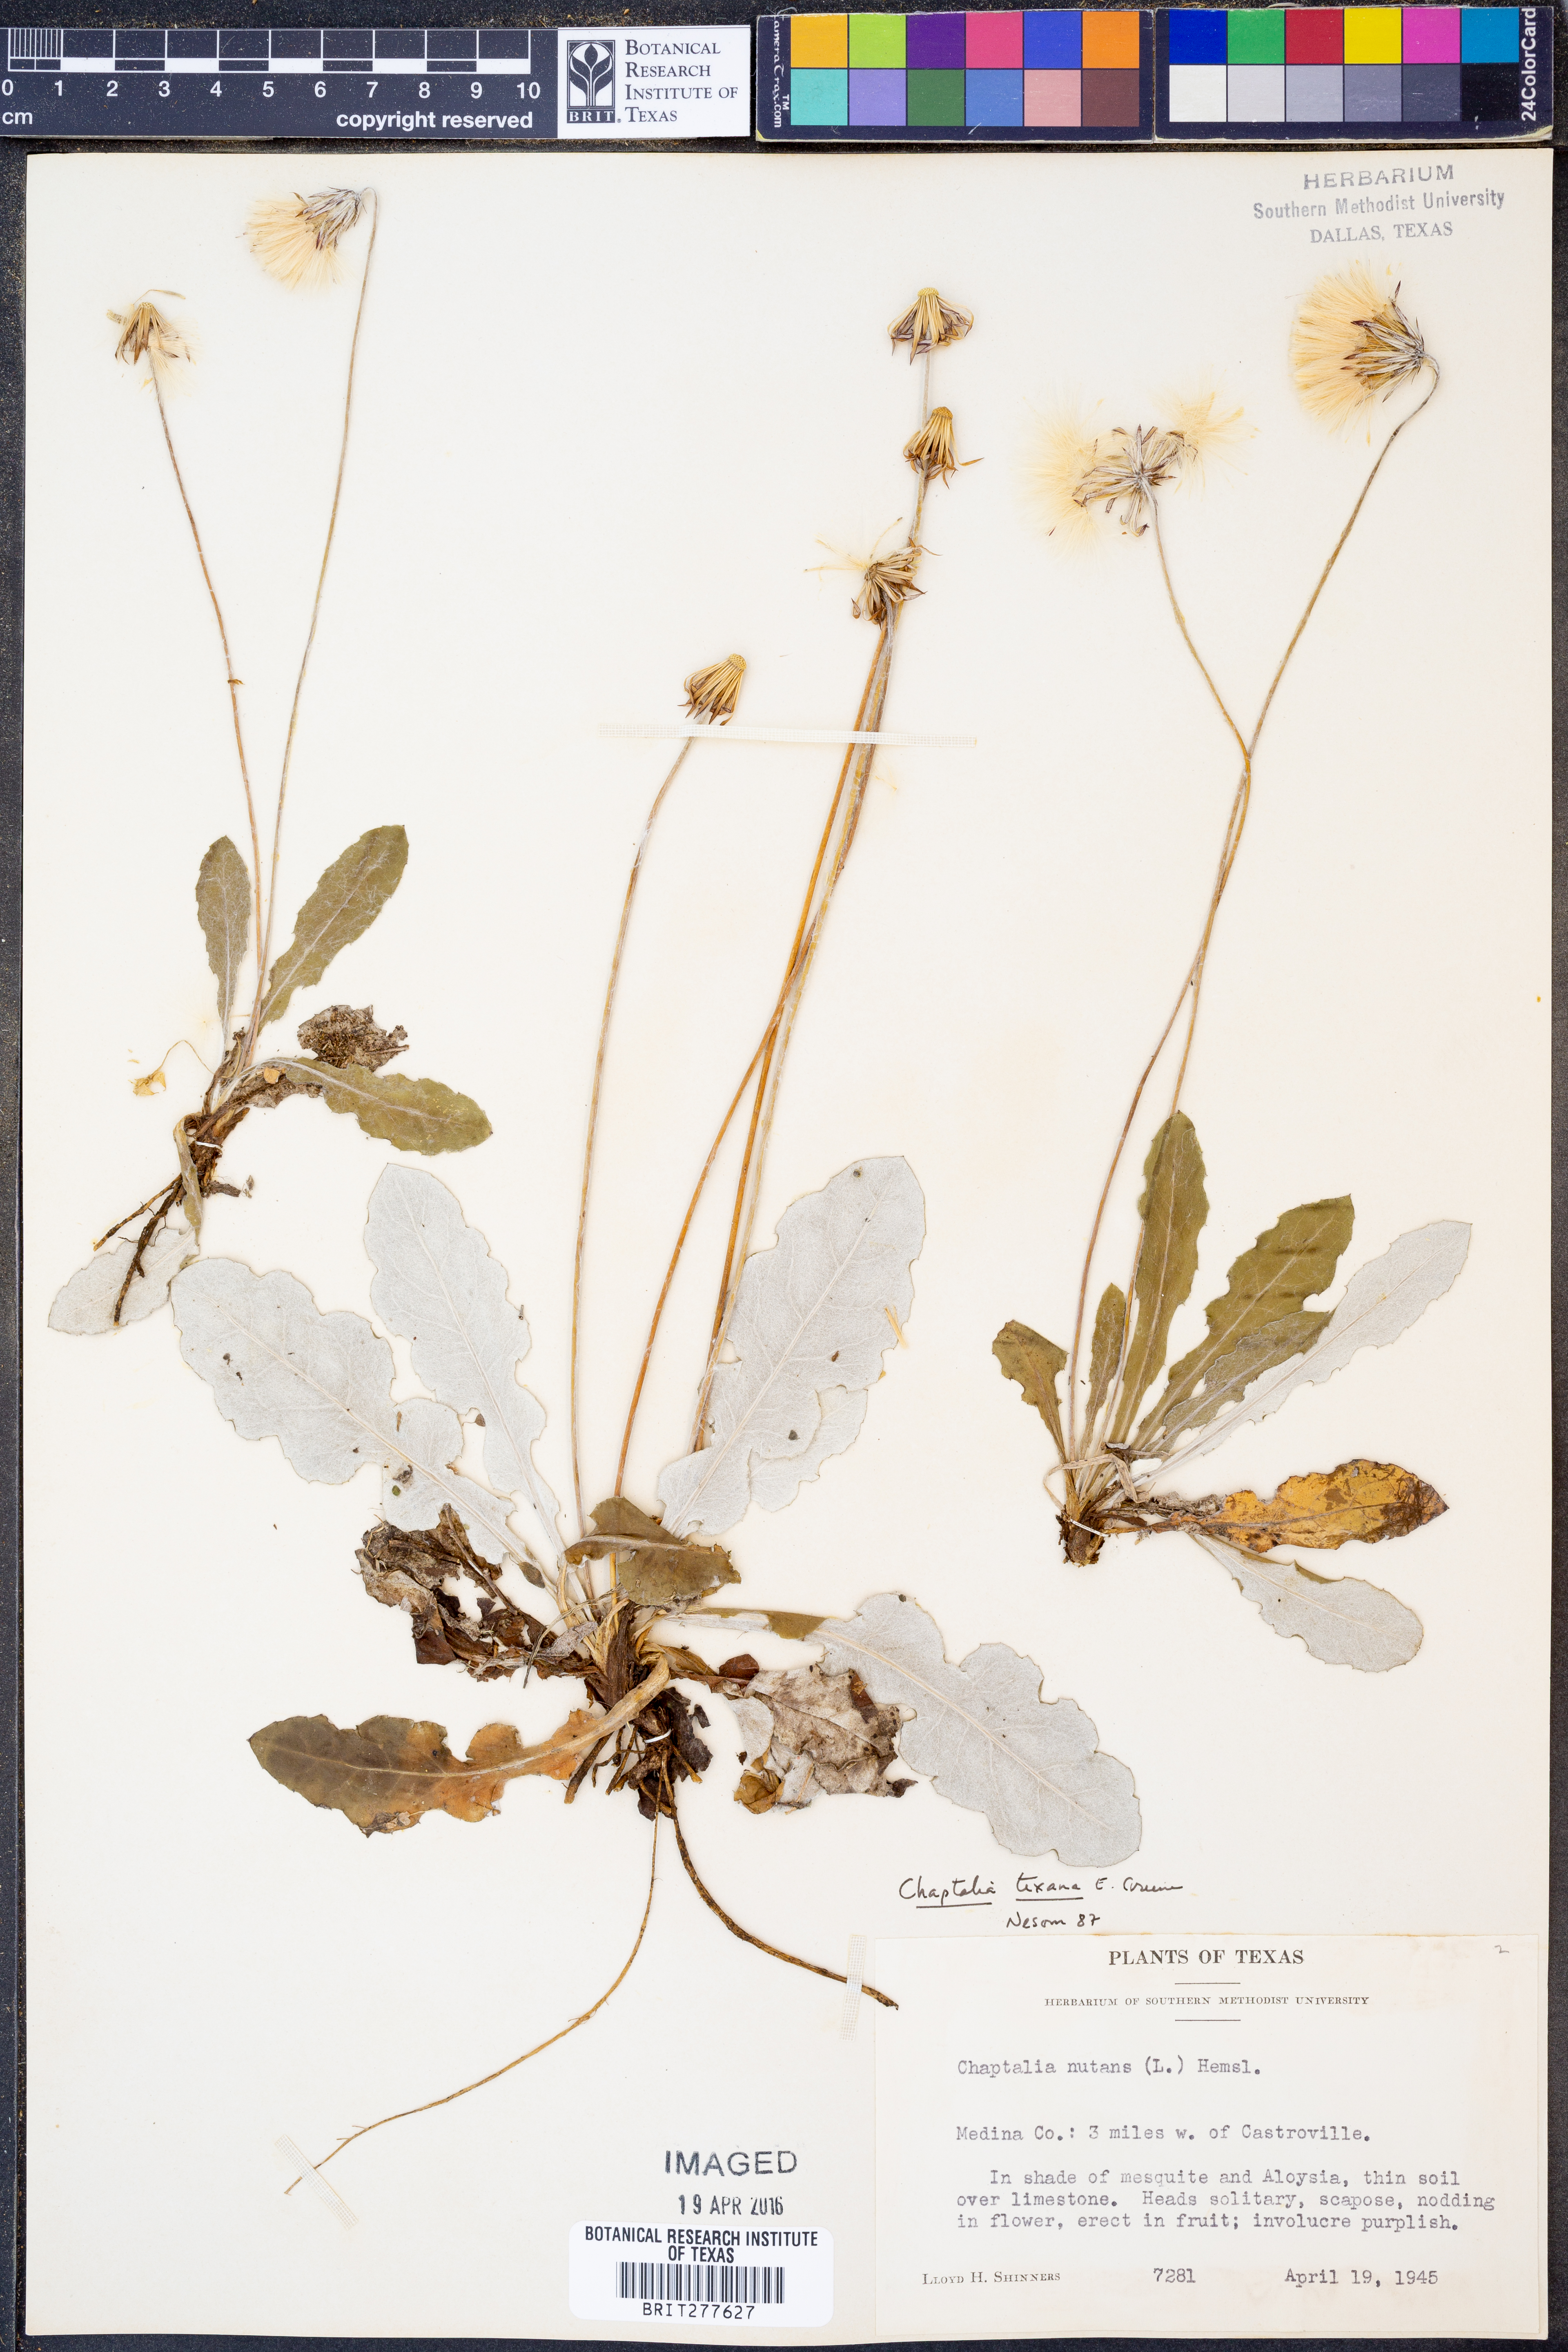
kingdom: Plantae
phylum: Tracheophyta
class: Magnoliopsida
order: Asterales
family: Asteraceae
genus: Chaptalia
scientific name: Chaptalia texana
